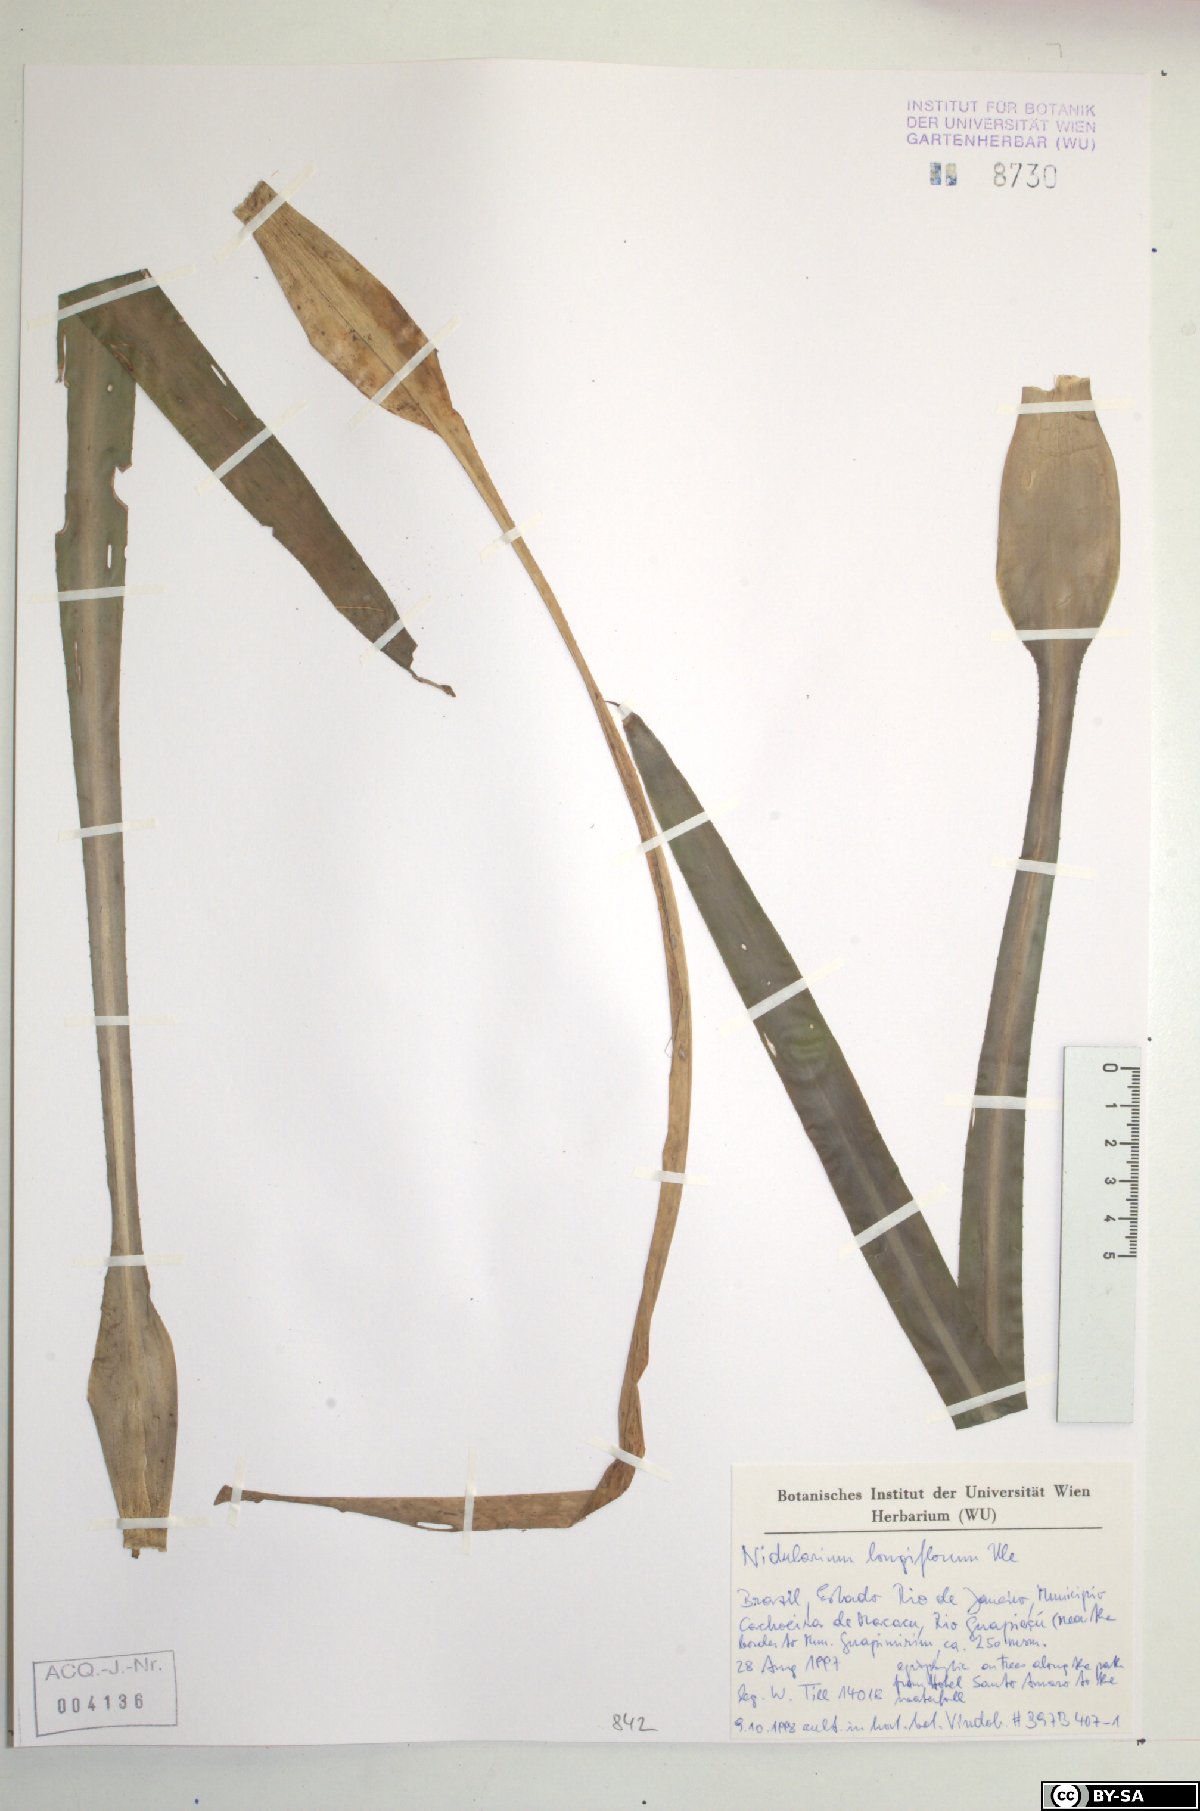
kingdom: Plantae
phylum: Tracheophyta
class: Liliopsida
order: Poales
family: Bromeliaceae
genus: Nidularium
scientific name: Nidularium longiflorum
